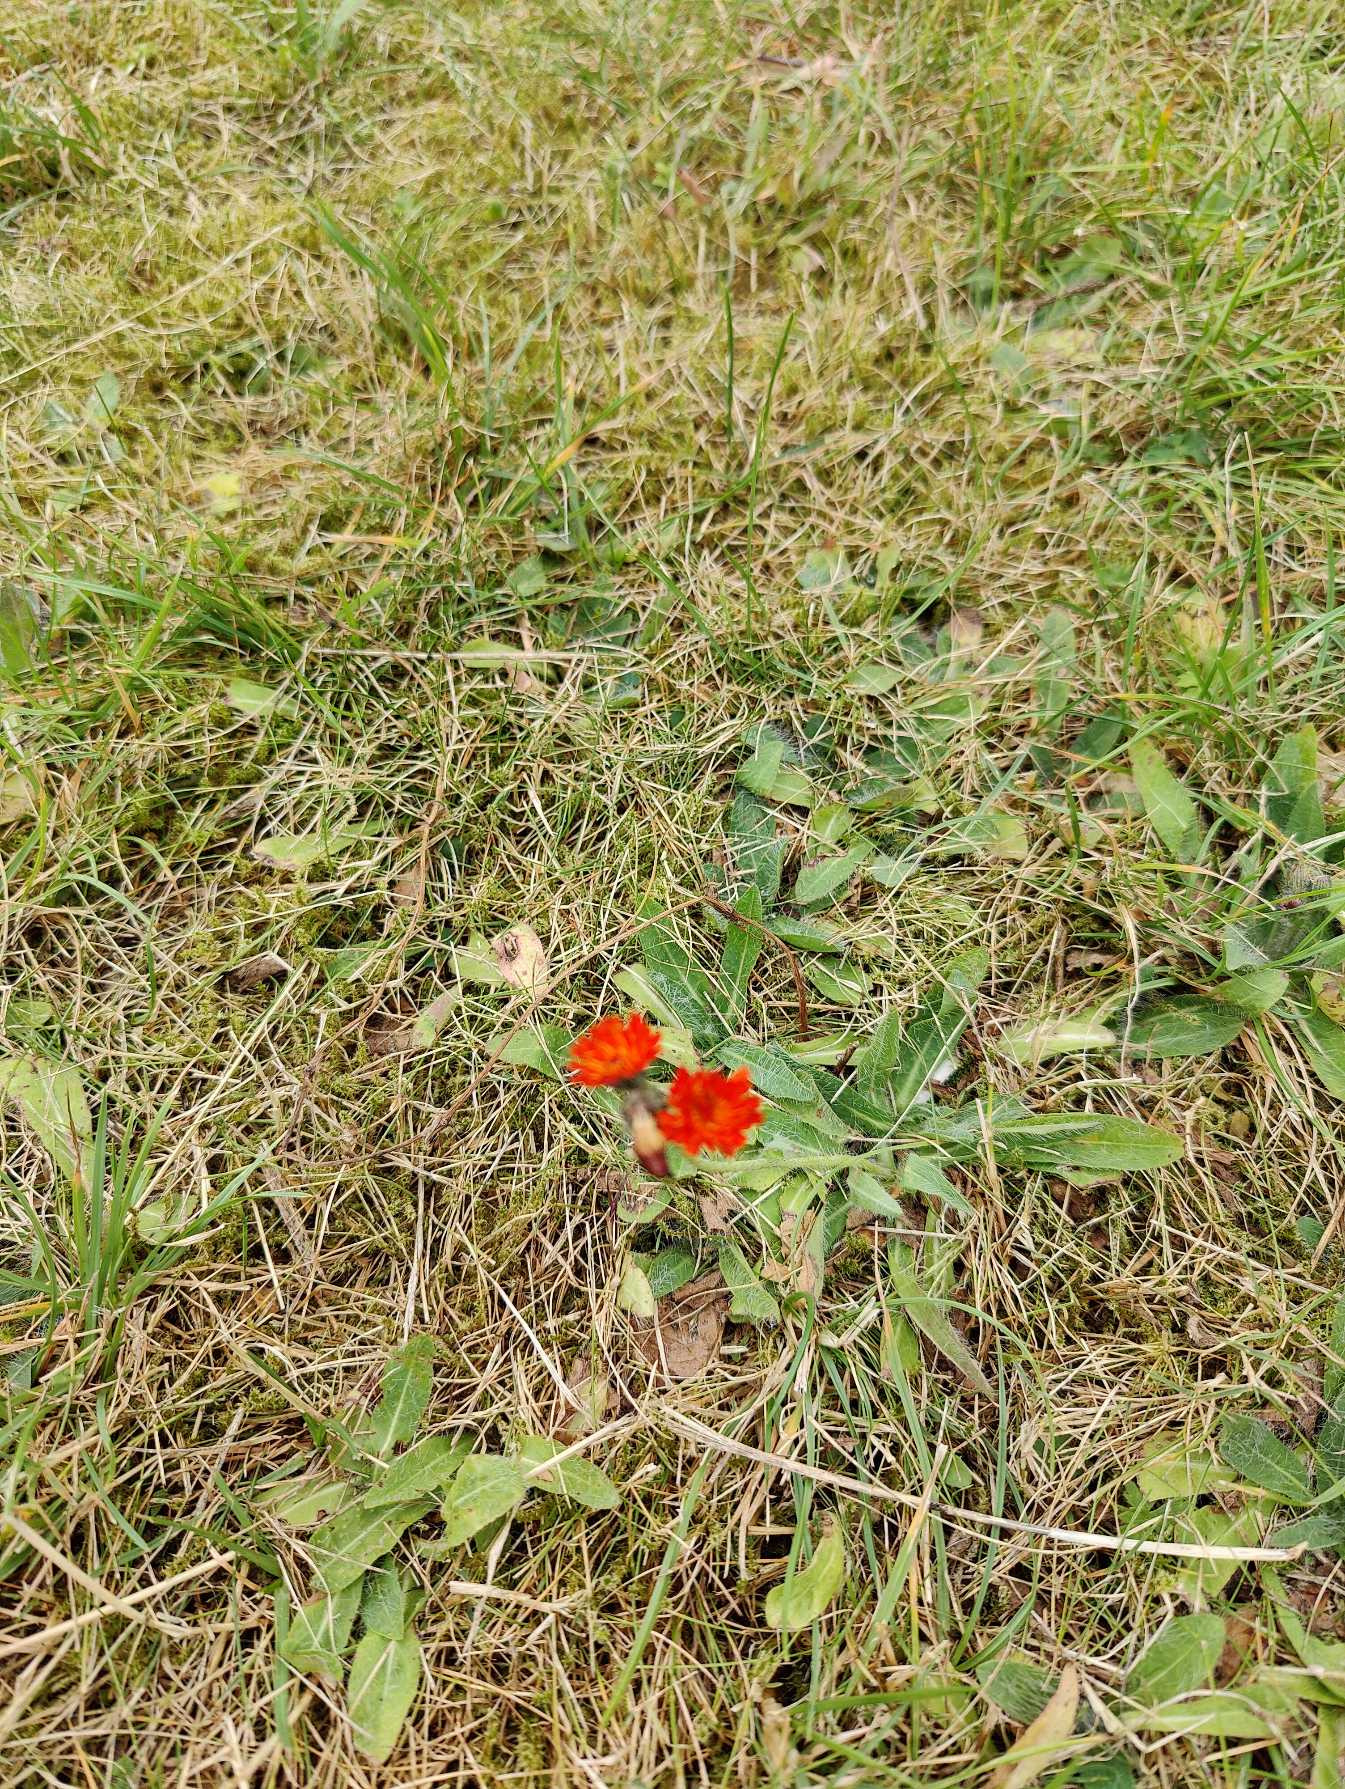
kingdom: Plantae
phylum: Tracheophyta
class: Magnoliopsida
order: Asterales
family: Asteraceae
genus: Pilosella
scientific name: Pilosella aurantiaca
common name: Pomerans-høgeurt
